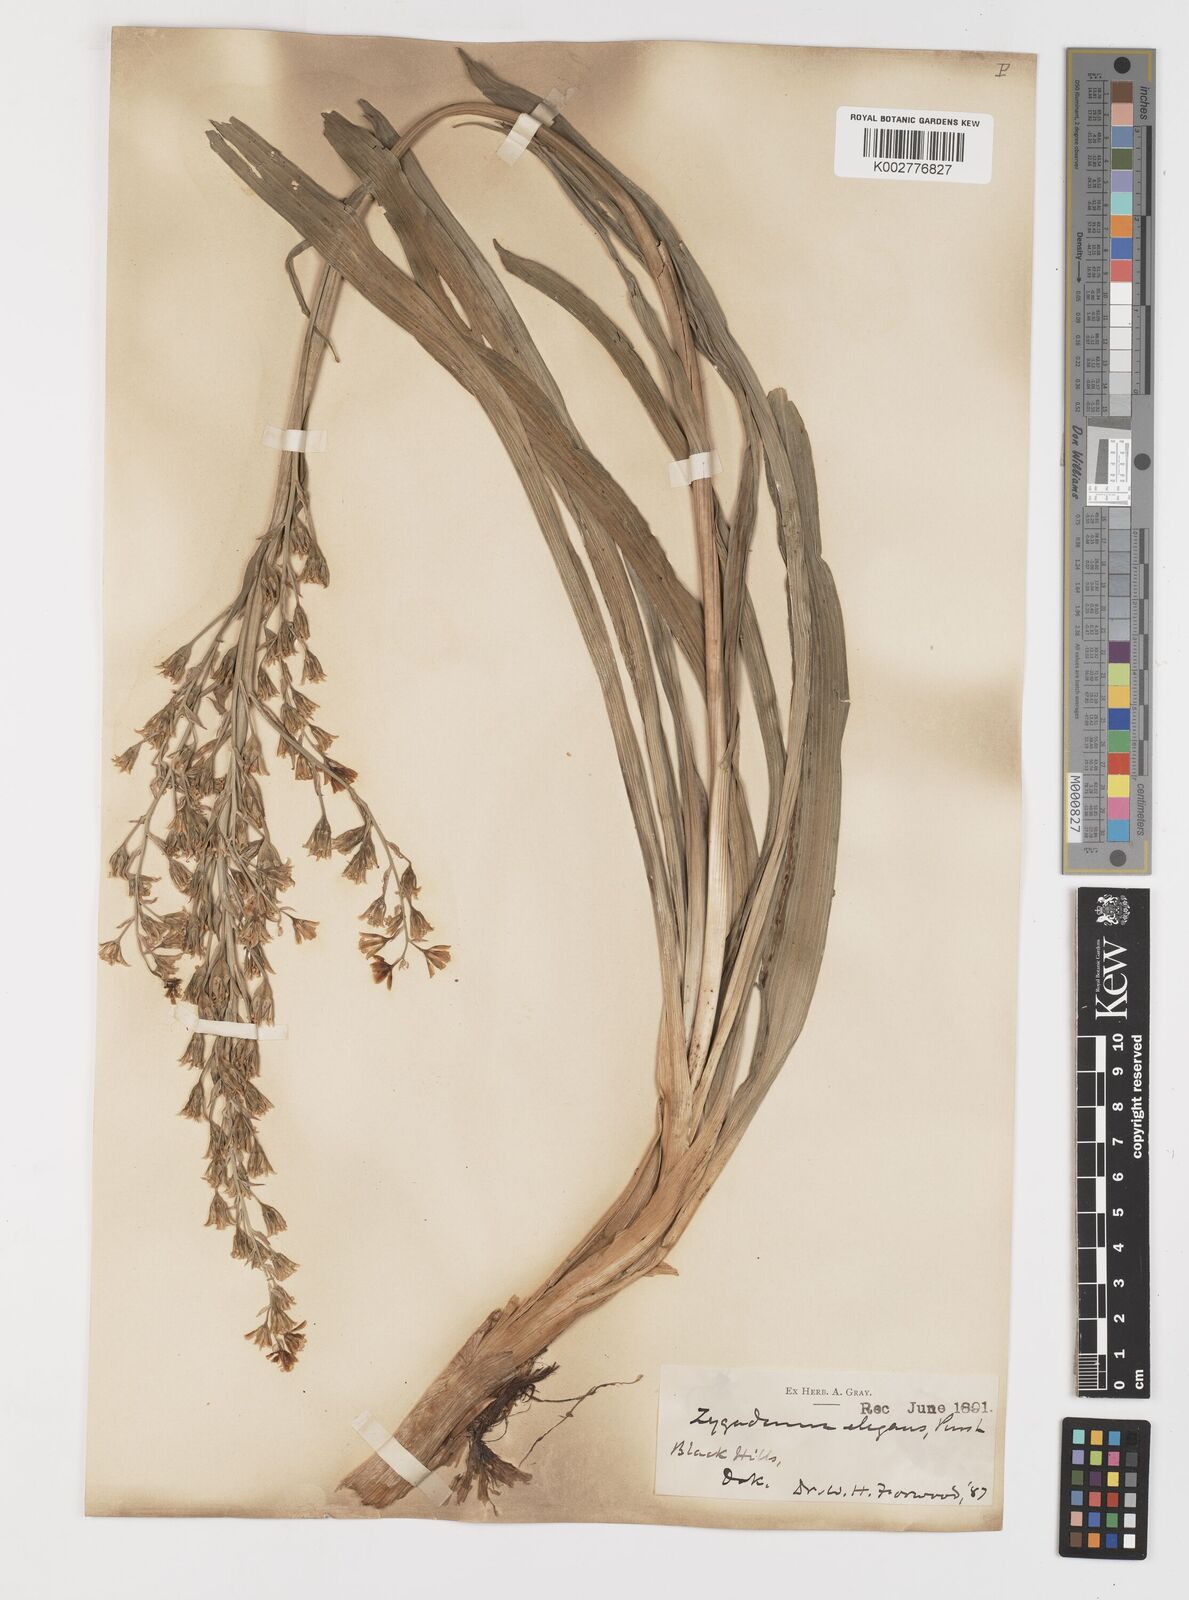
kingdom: Plantae
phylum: Tracheophyta
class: Liliopsida
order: Liliales
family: Melanthiaceae
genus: Anticlea
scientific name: Anticlea elegans
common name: Mountain death camas
